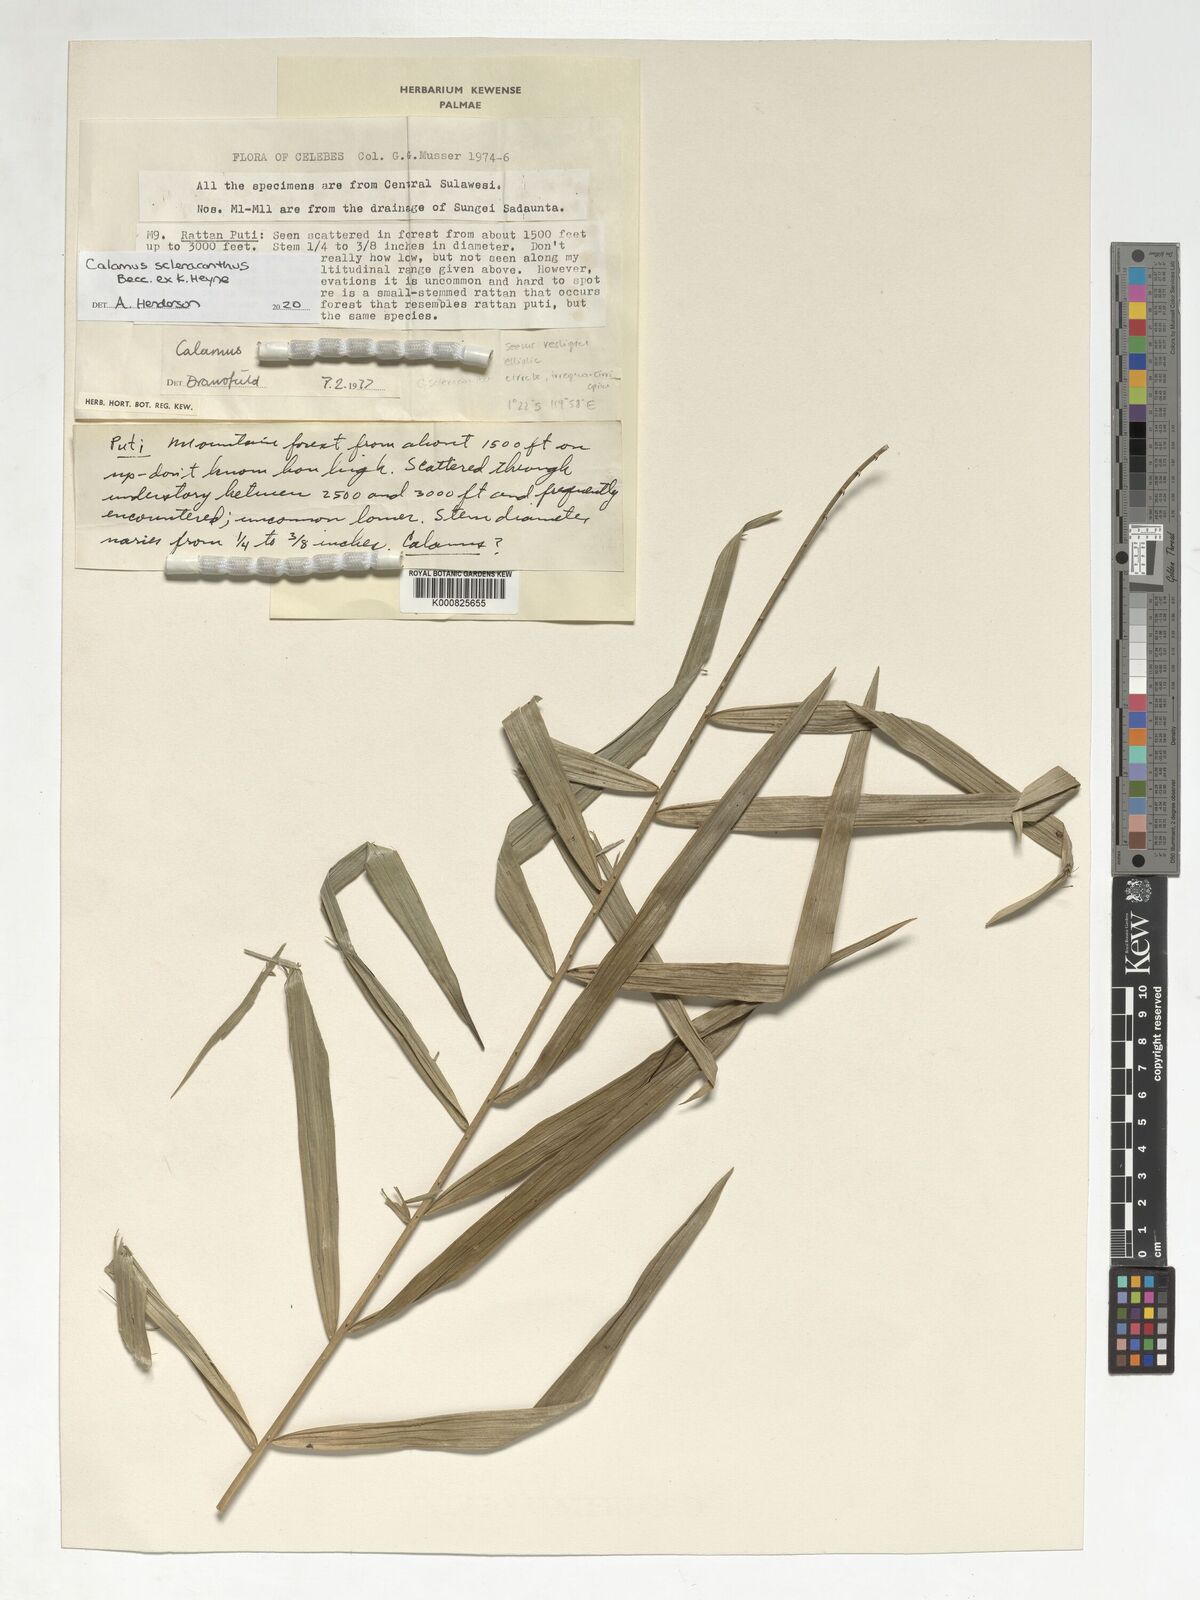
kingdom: Plantae
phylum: Tracheophyta
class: Liliopsida
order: Arecales
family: Arecaceae
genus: Calamus
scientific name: Calamus scleracanthus
